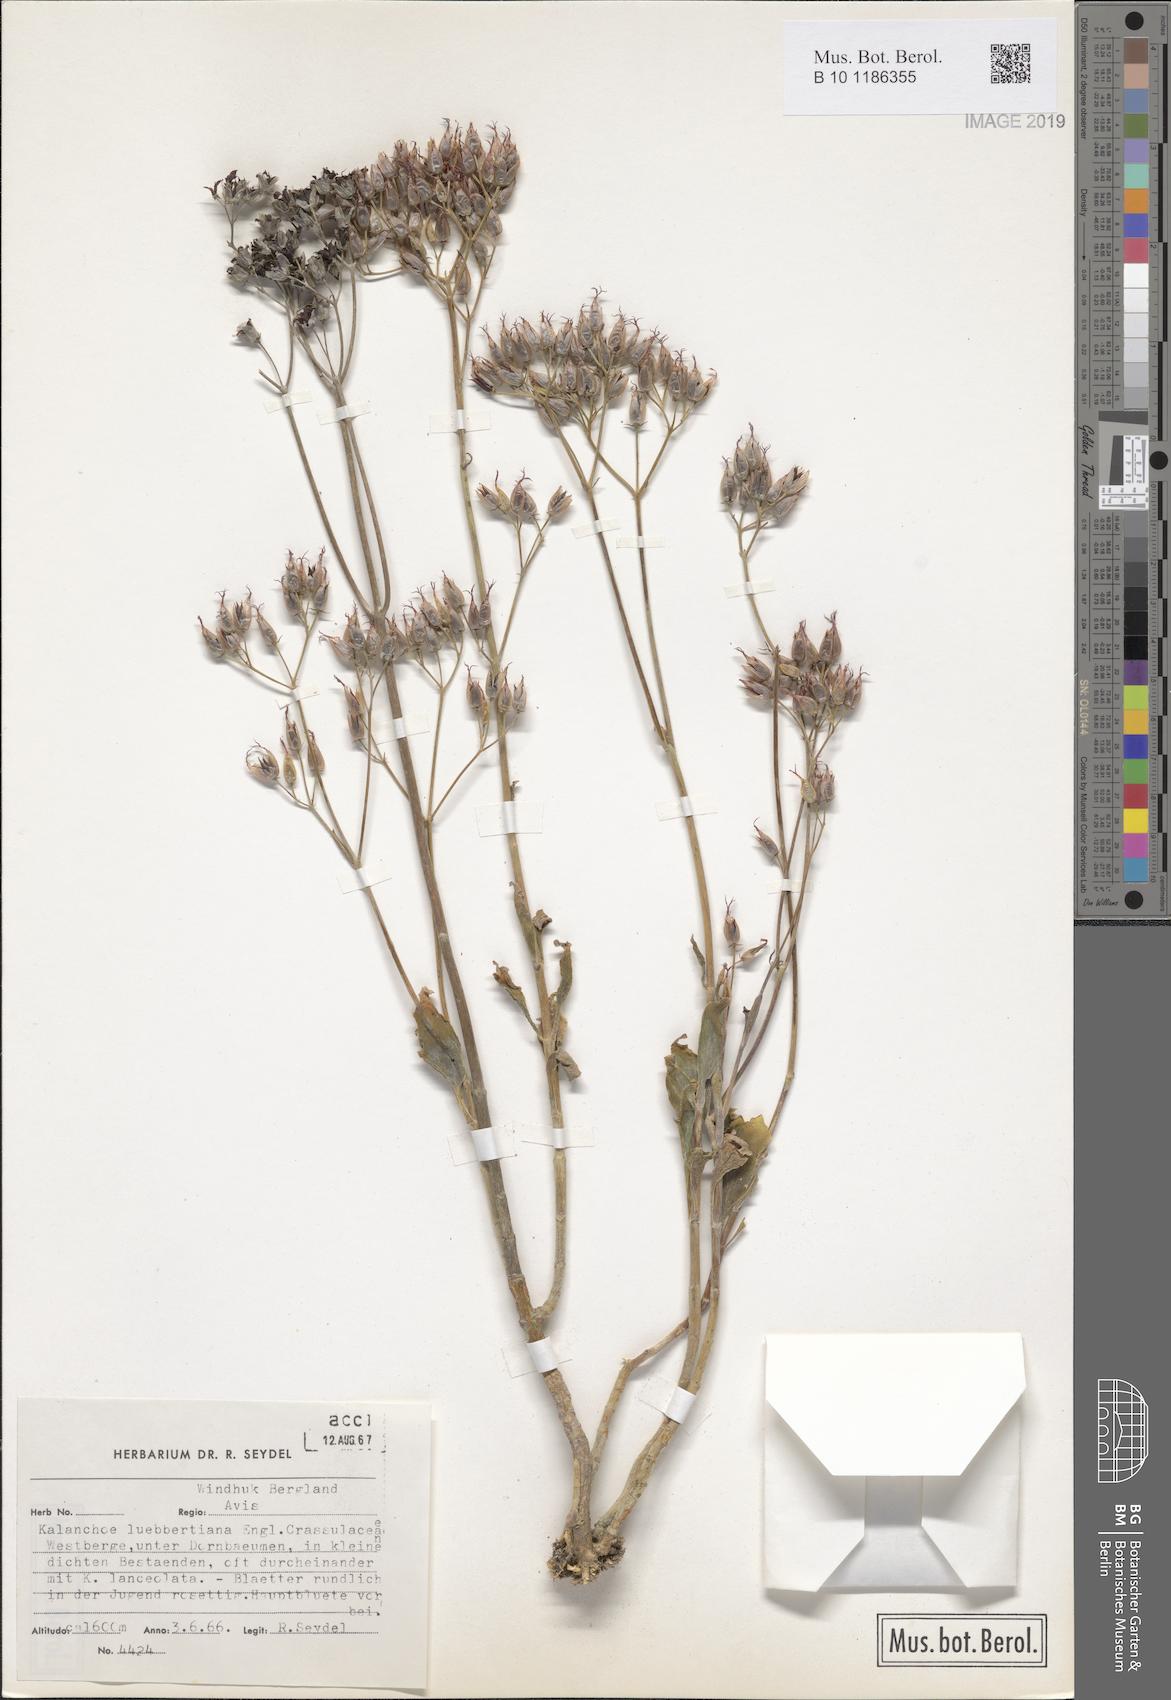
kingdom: Plantae
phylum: Tracheophyta
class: Magnoliopsida
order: Saxifragales
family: Crassulaceae
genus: Kalanchoe
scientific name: Kalanchoe rotundifolia
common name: Common kalanchoe
